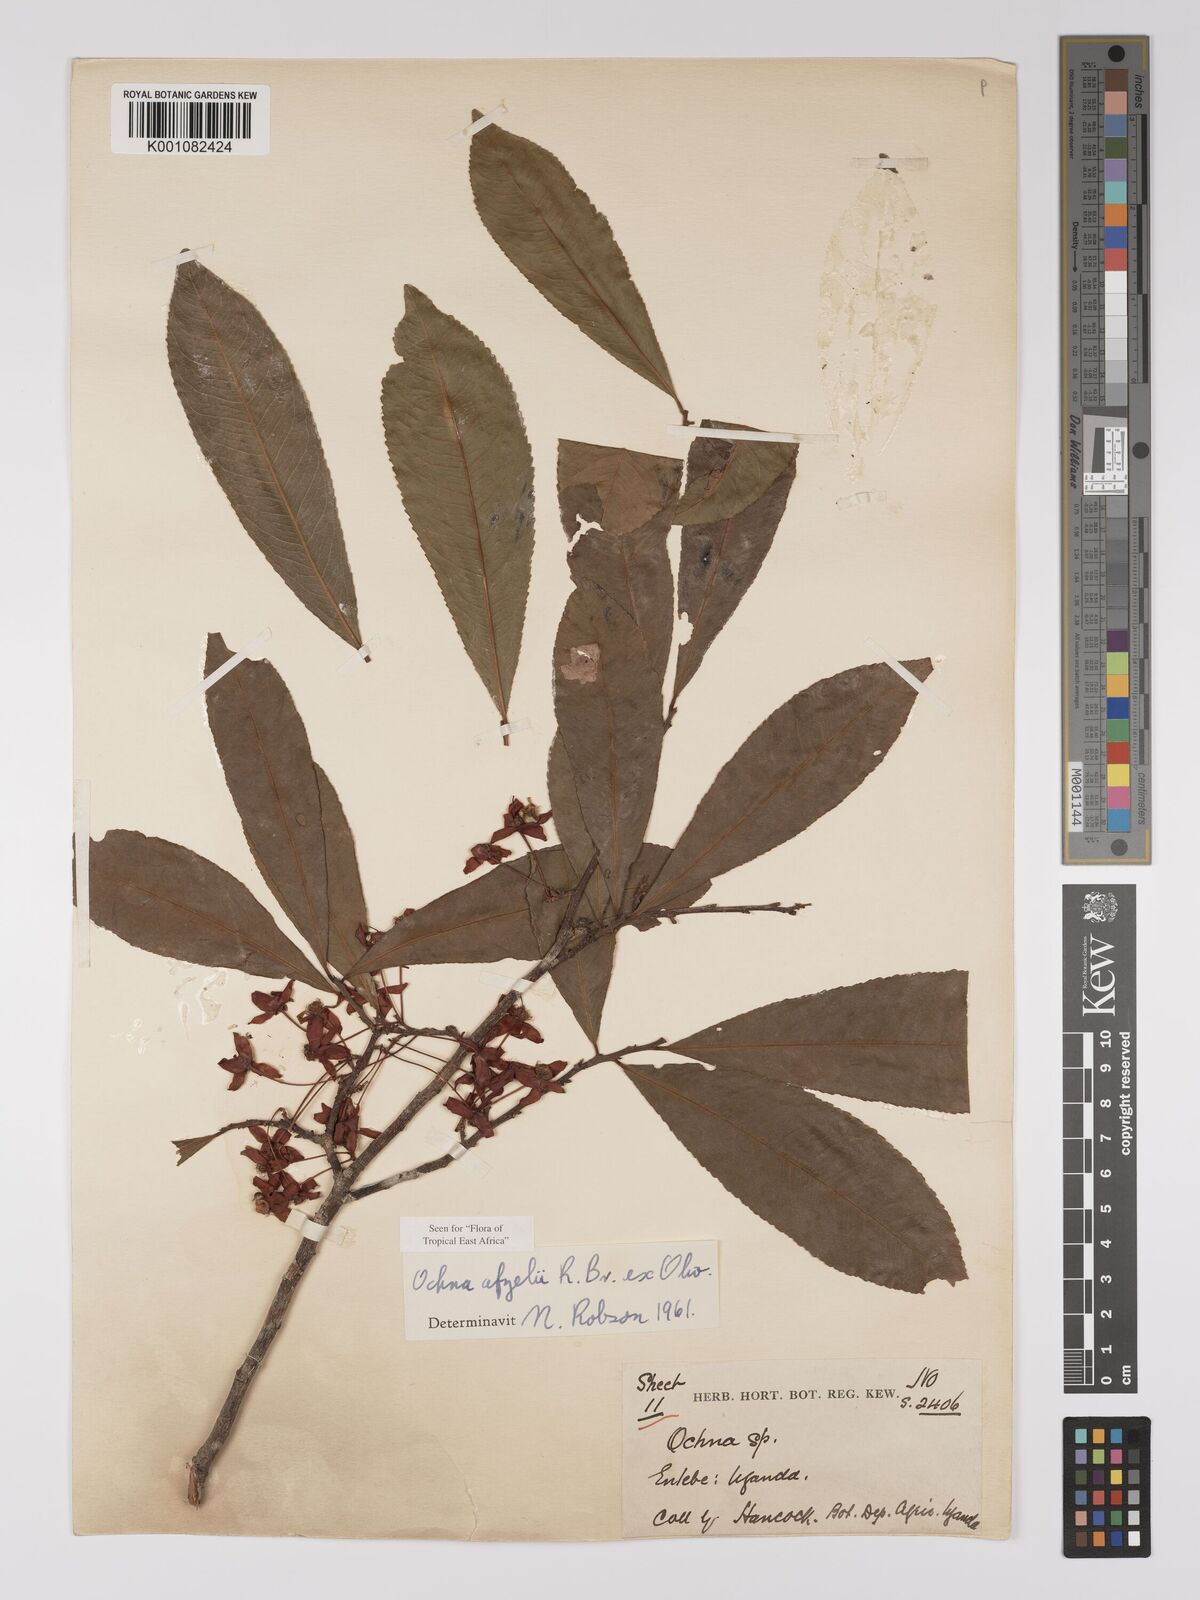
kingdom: Plantae
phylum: Tracheophyta
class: Magnoliopsida
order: Malpighiales
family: Ochnaceae
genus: Ochna
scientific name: Ochna afzelii
